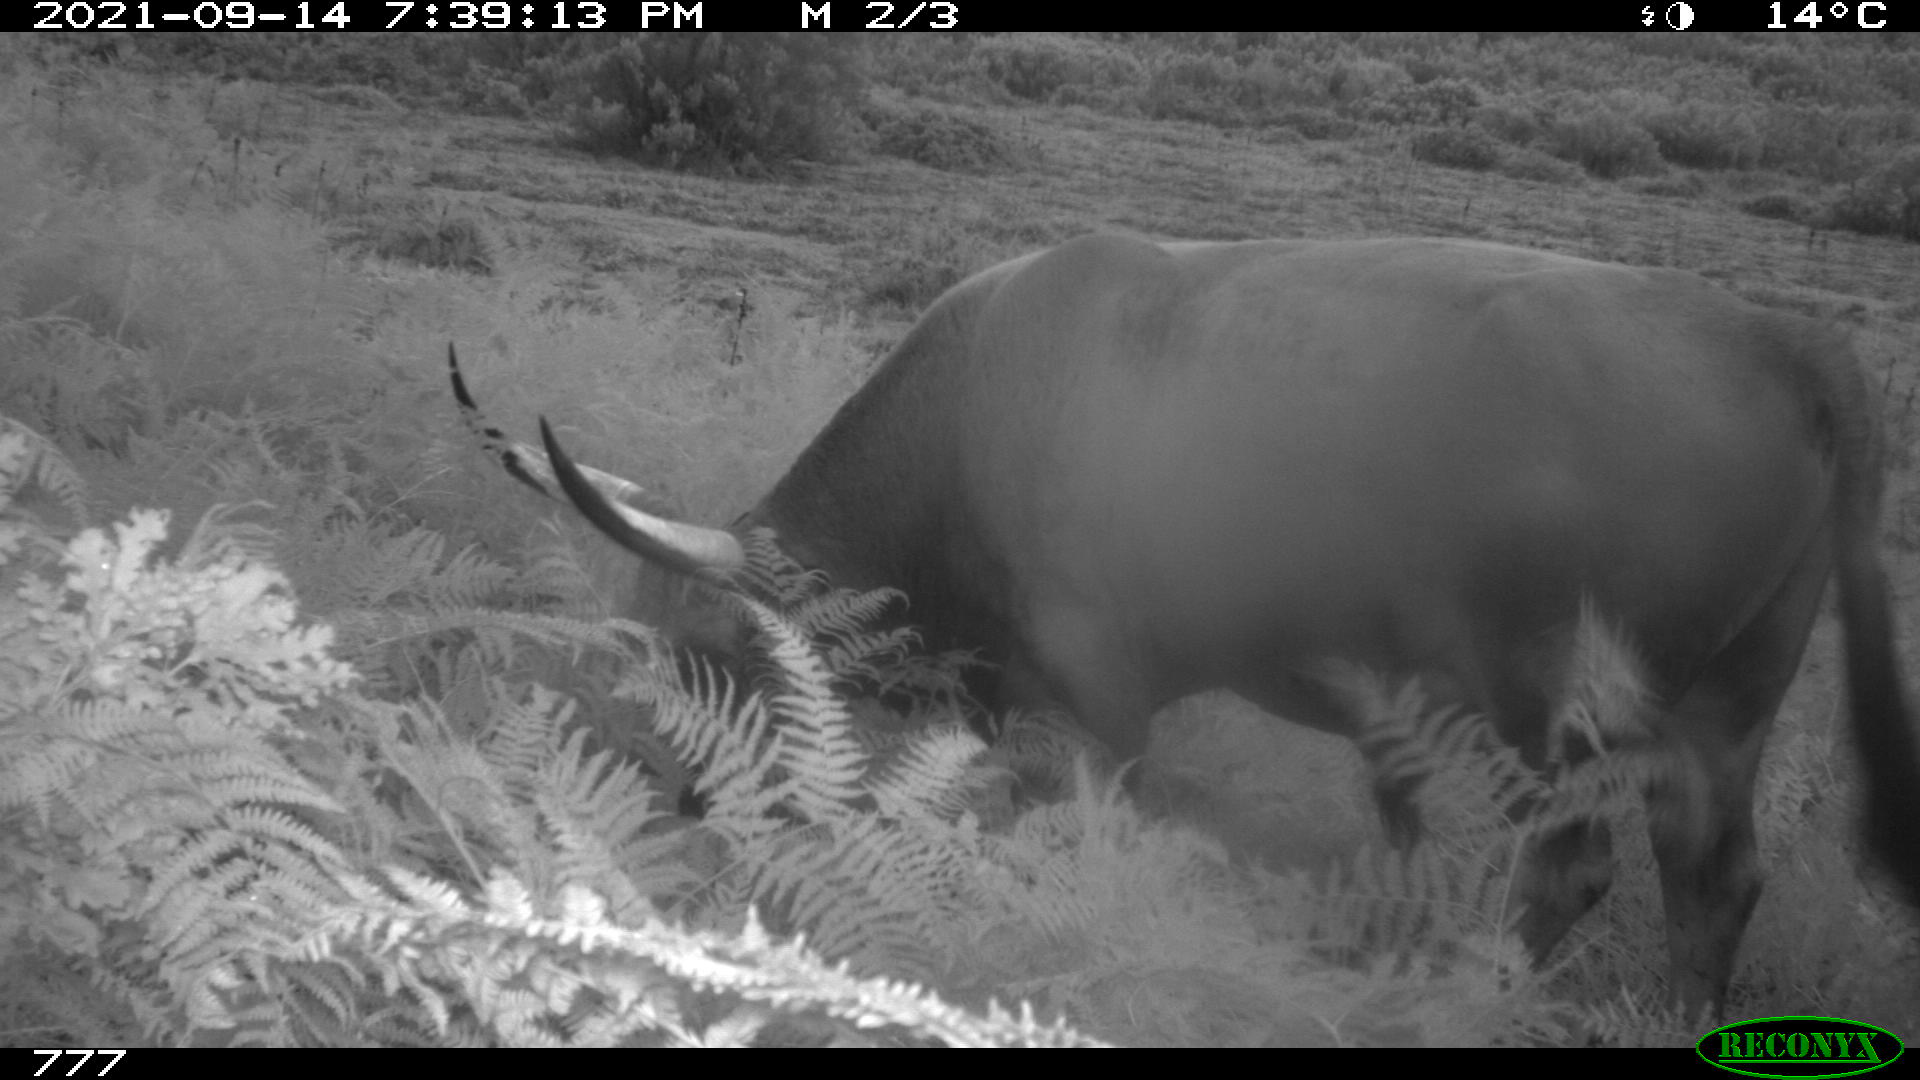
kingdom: Animalia
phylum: Chordata
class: Mammalia
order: Artiodactyla
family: Bovidae
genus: Bos
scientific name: Bos taurus
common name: Domesticated cattle
